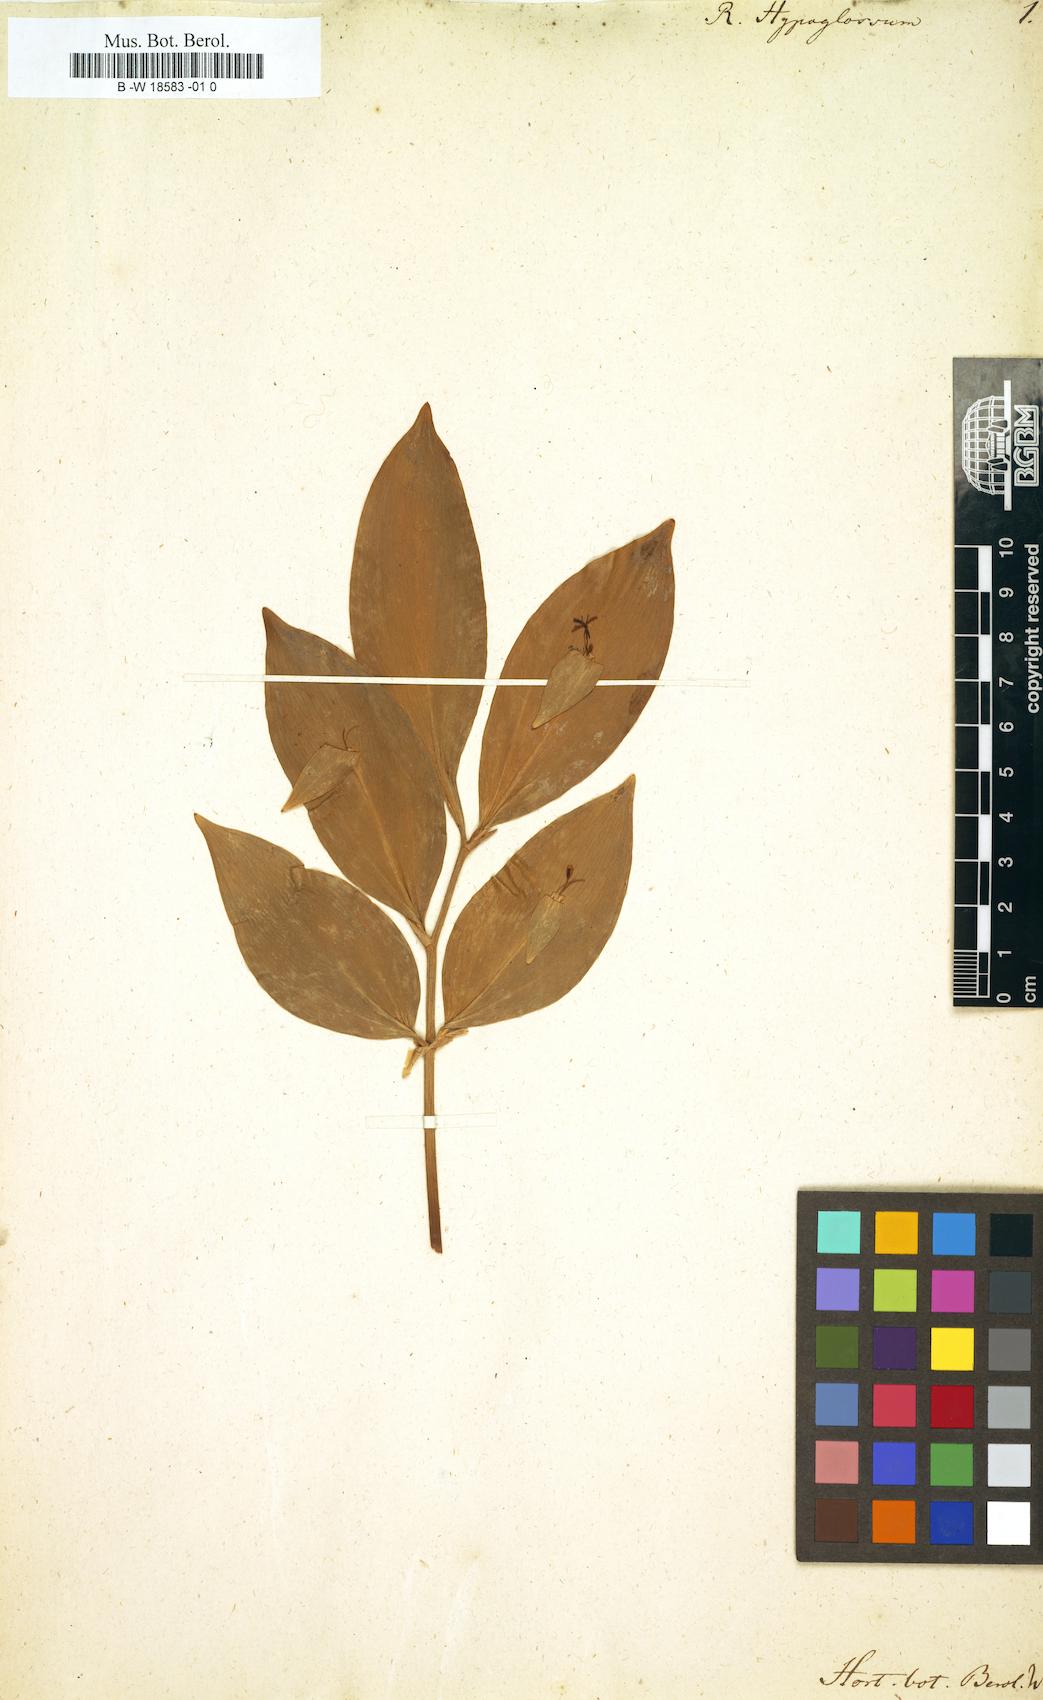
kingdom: Plantae
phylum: Tracheophyta
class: Liliopsida
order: Asparagales
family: Asparagaceae
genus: Ruscus
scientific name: Ruscus hypoglossum
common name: Spineless butcher's-broom
